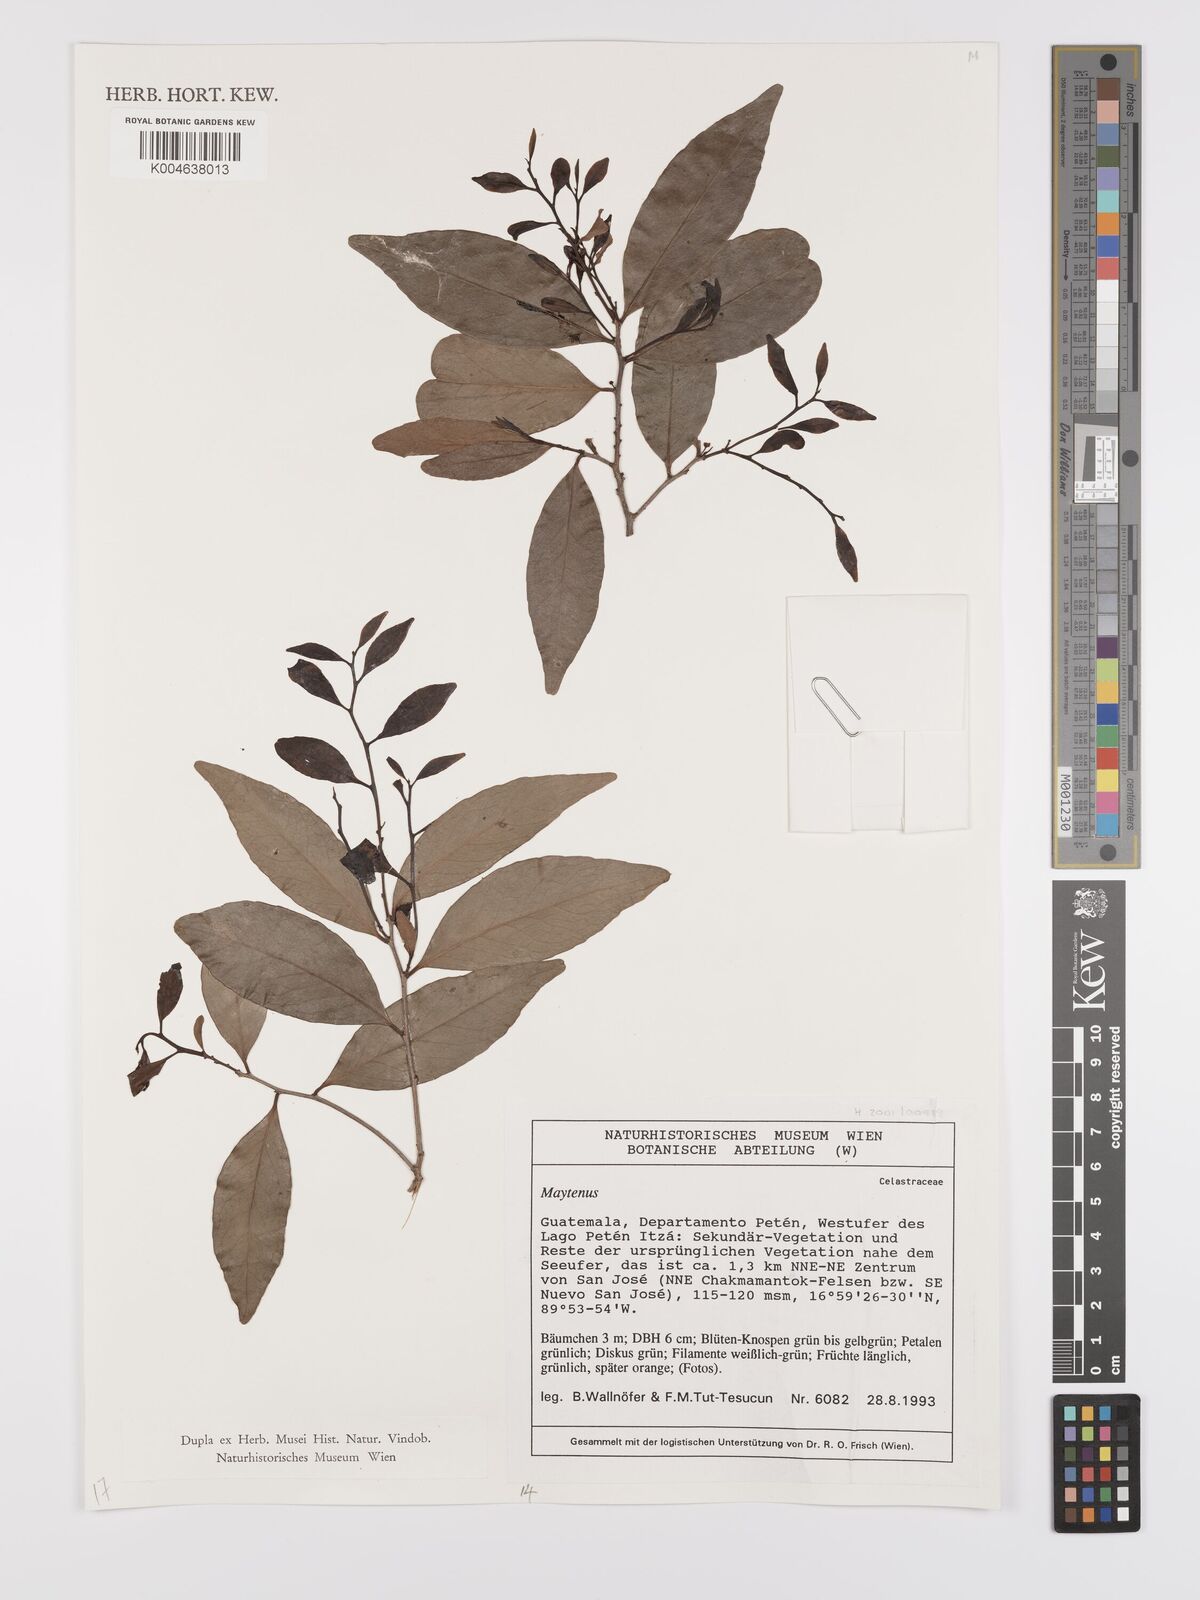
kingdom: Plantae
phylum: Tracheophyta
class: Magnoliopsida
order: Celastrales
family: Celastraceae
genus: Maytenus
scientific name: Maytenus
